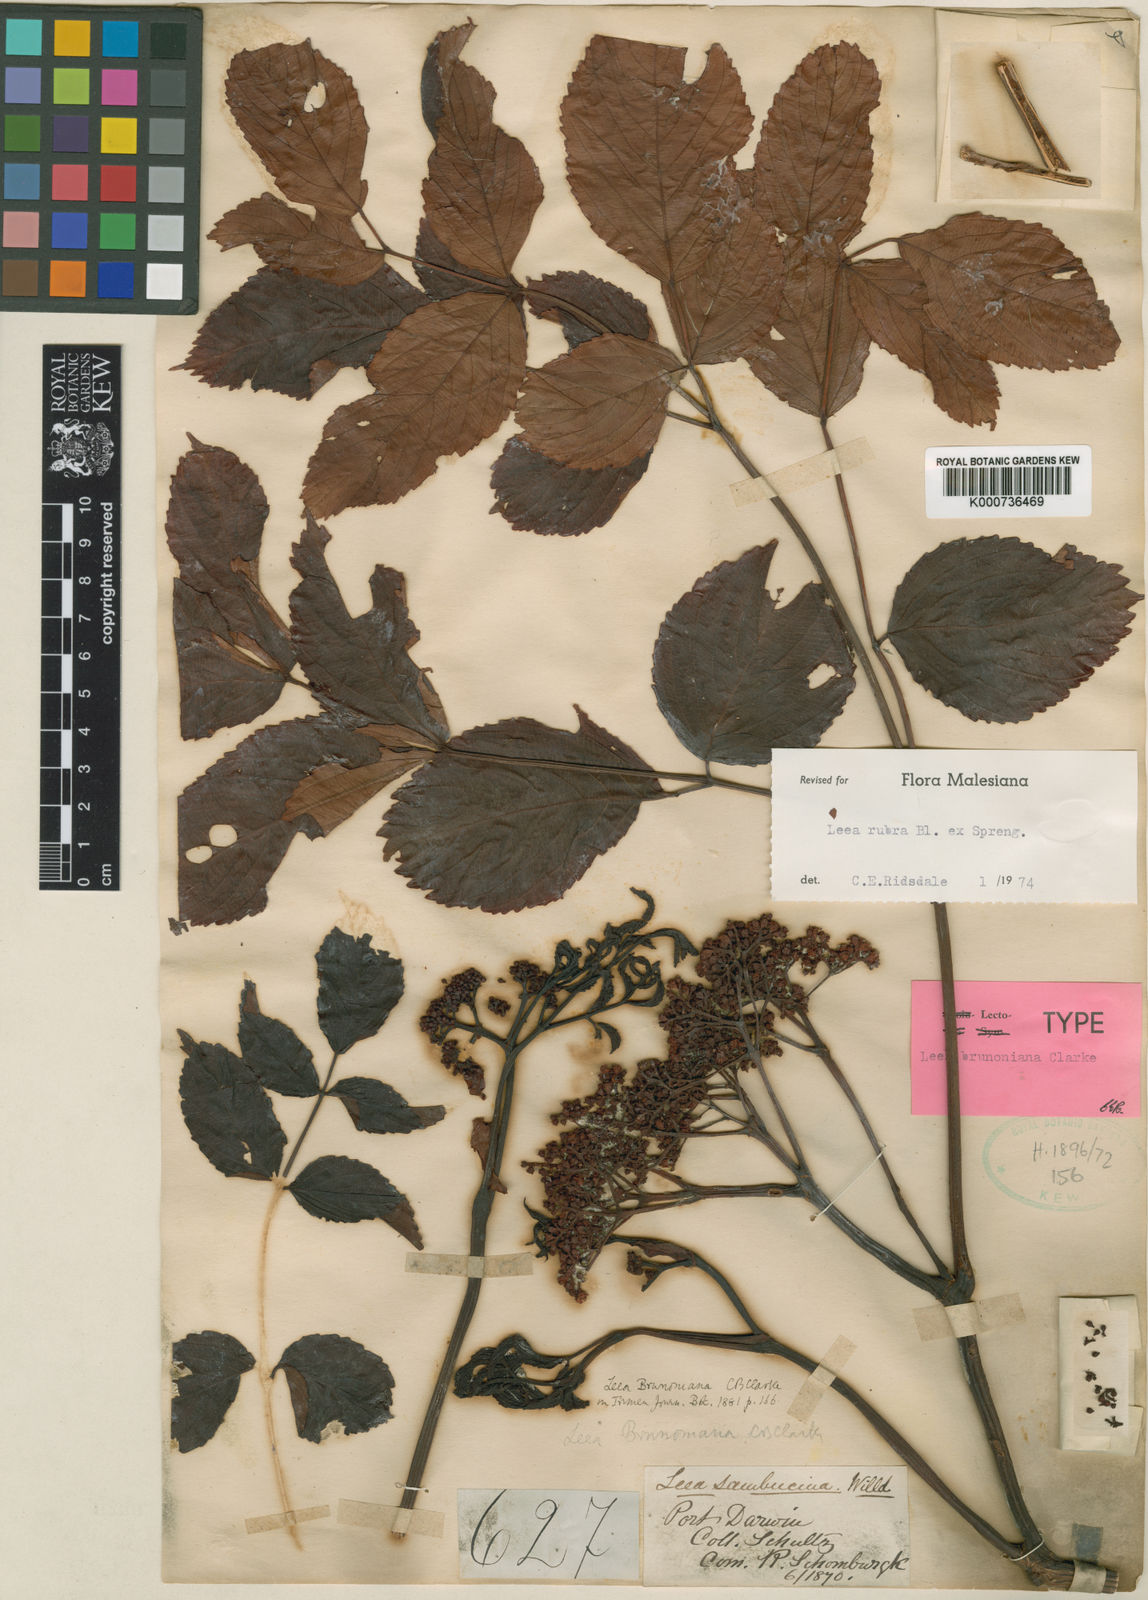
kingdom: Plantae
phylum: Tracheophyta
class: Magnoliopsida
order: Vitales
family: Vitaceae
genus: Leea
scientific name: Leea rubra
